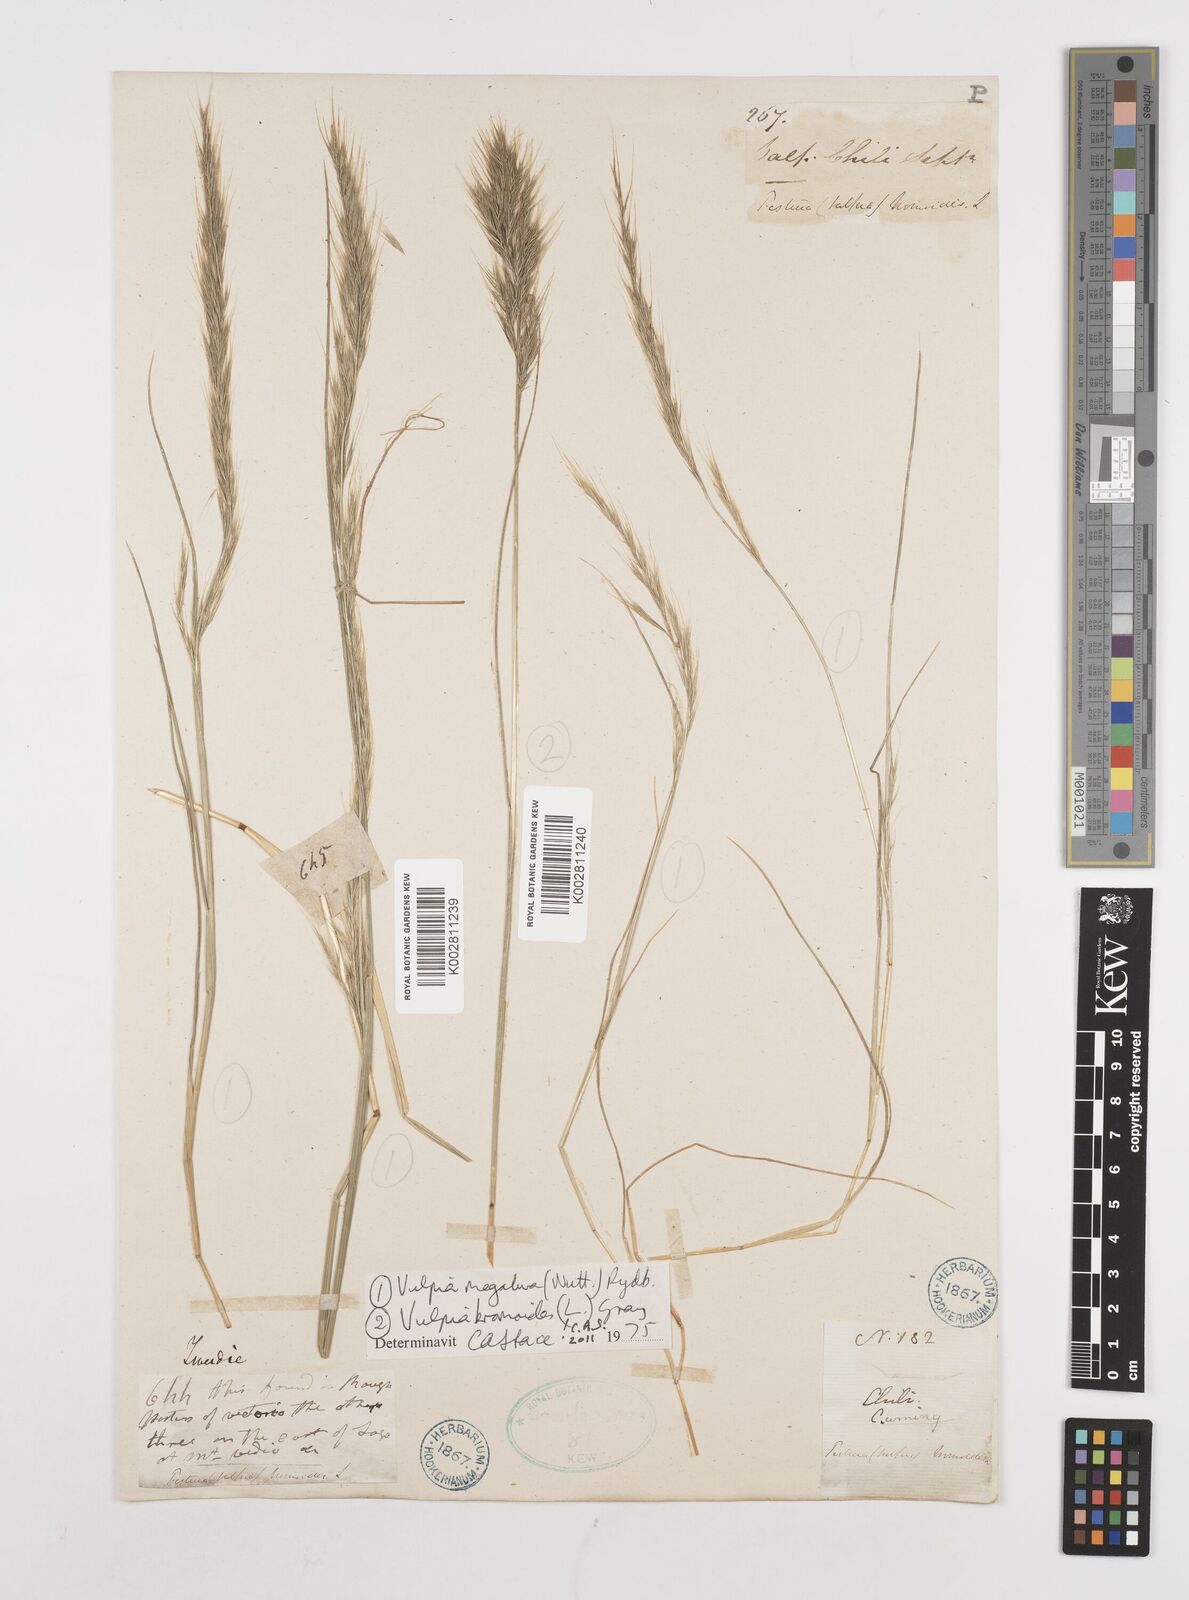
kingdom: Plantae
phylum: Tracheophyta
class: Liliopsida
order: Poales
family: Poaceae
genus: Festuca
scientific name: Festuca
